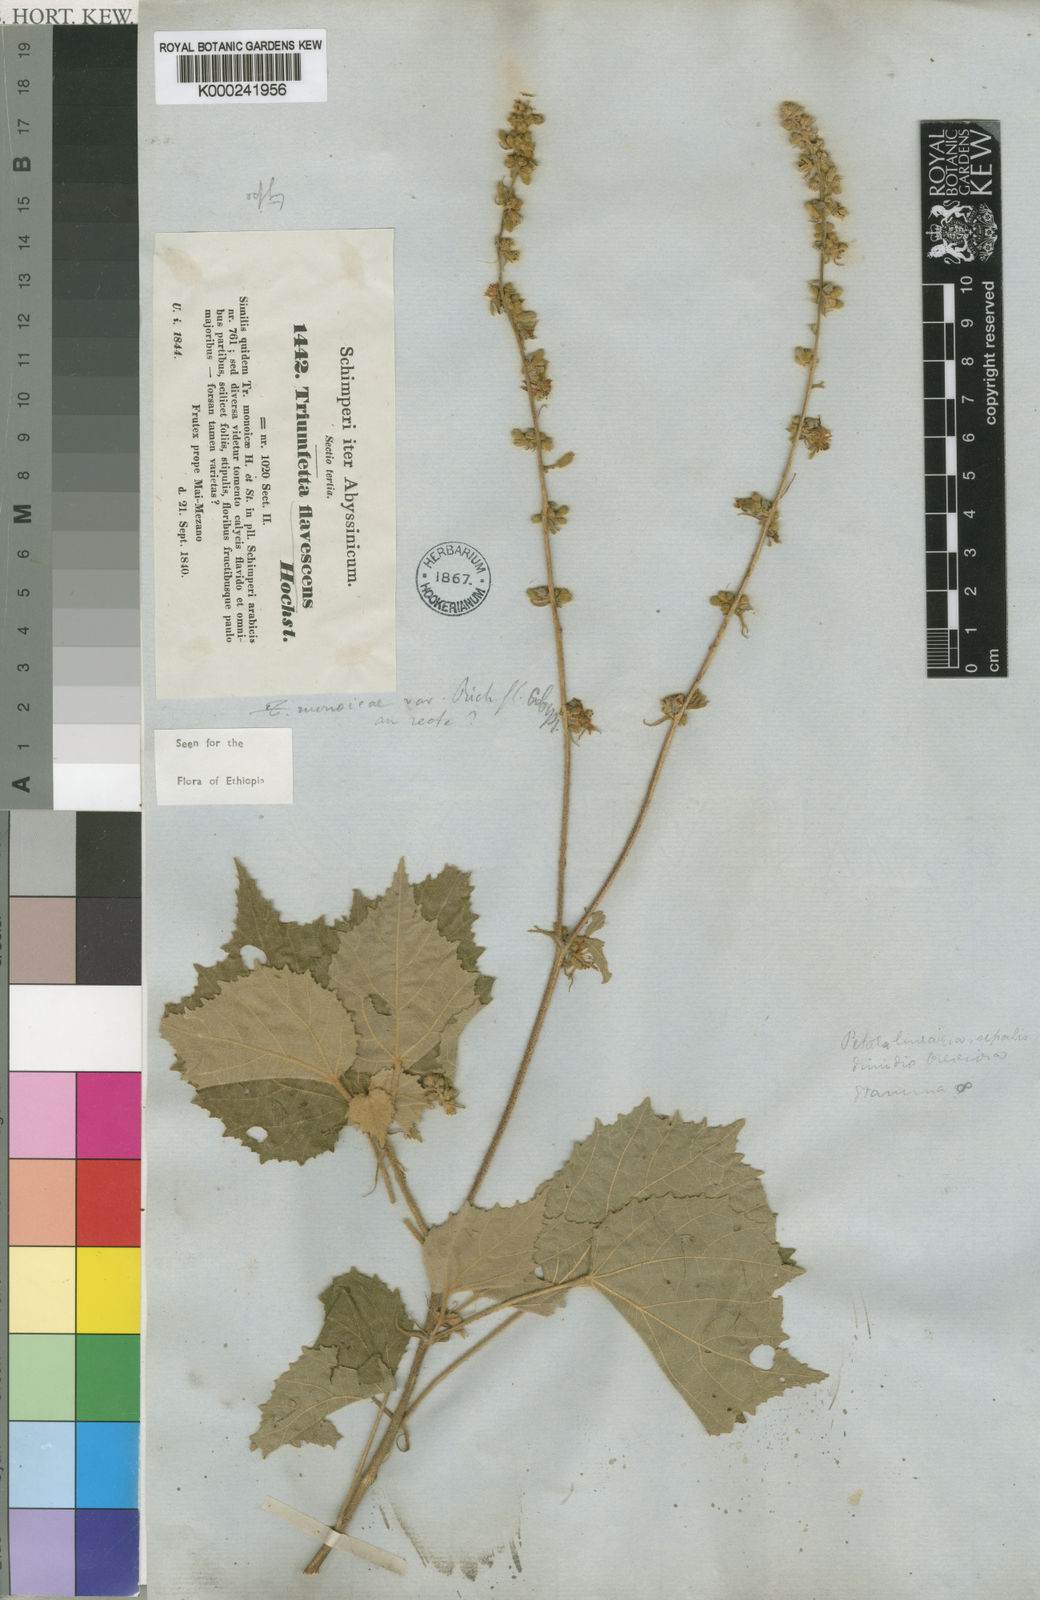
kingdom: Plantae
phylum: Tracheophyta
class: Magnoliopsida
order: Malvales
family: Malvaceae
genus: Triumfetta
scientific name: Triumfetta flavescens
